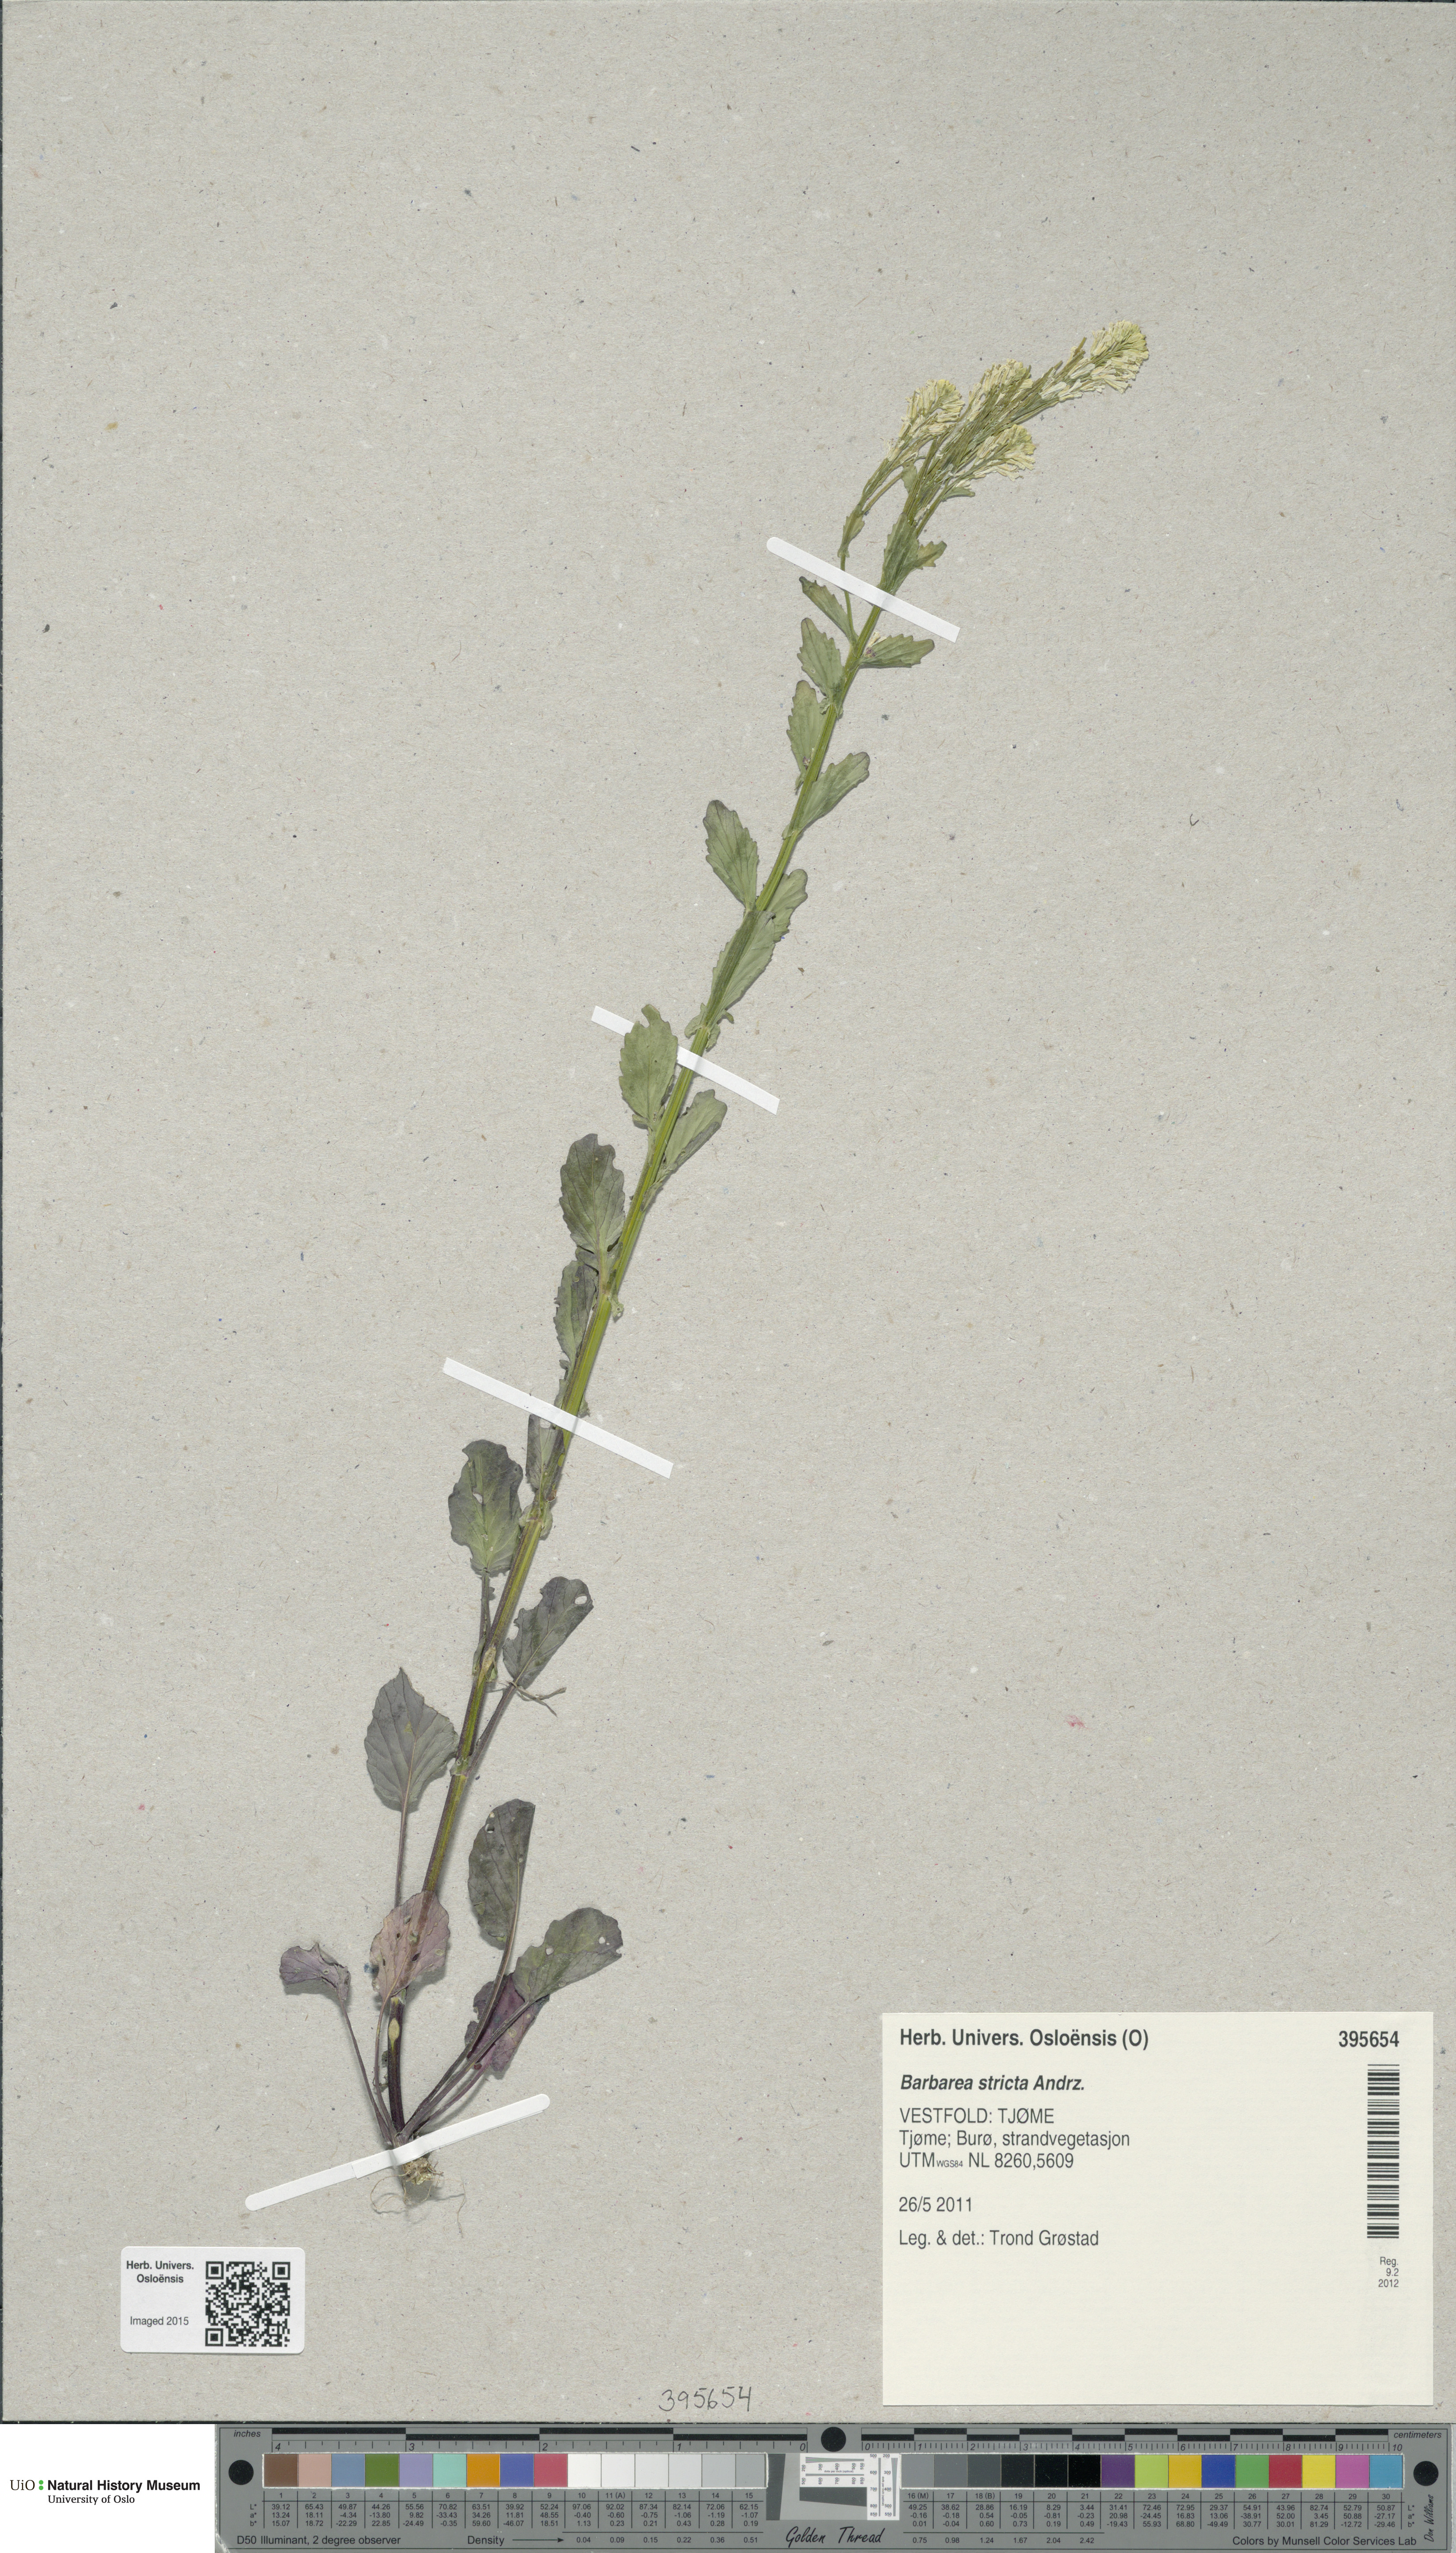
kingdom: Plantae
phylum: Tracheophyta
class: Magnoliopsida
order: Brassicales
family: Brassicaceae
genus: Barbarea
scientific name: Barbarea stricta
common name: Small-flowered winter-cress
